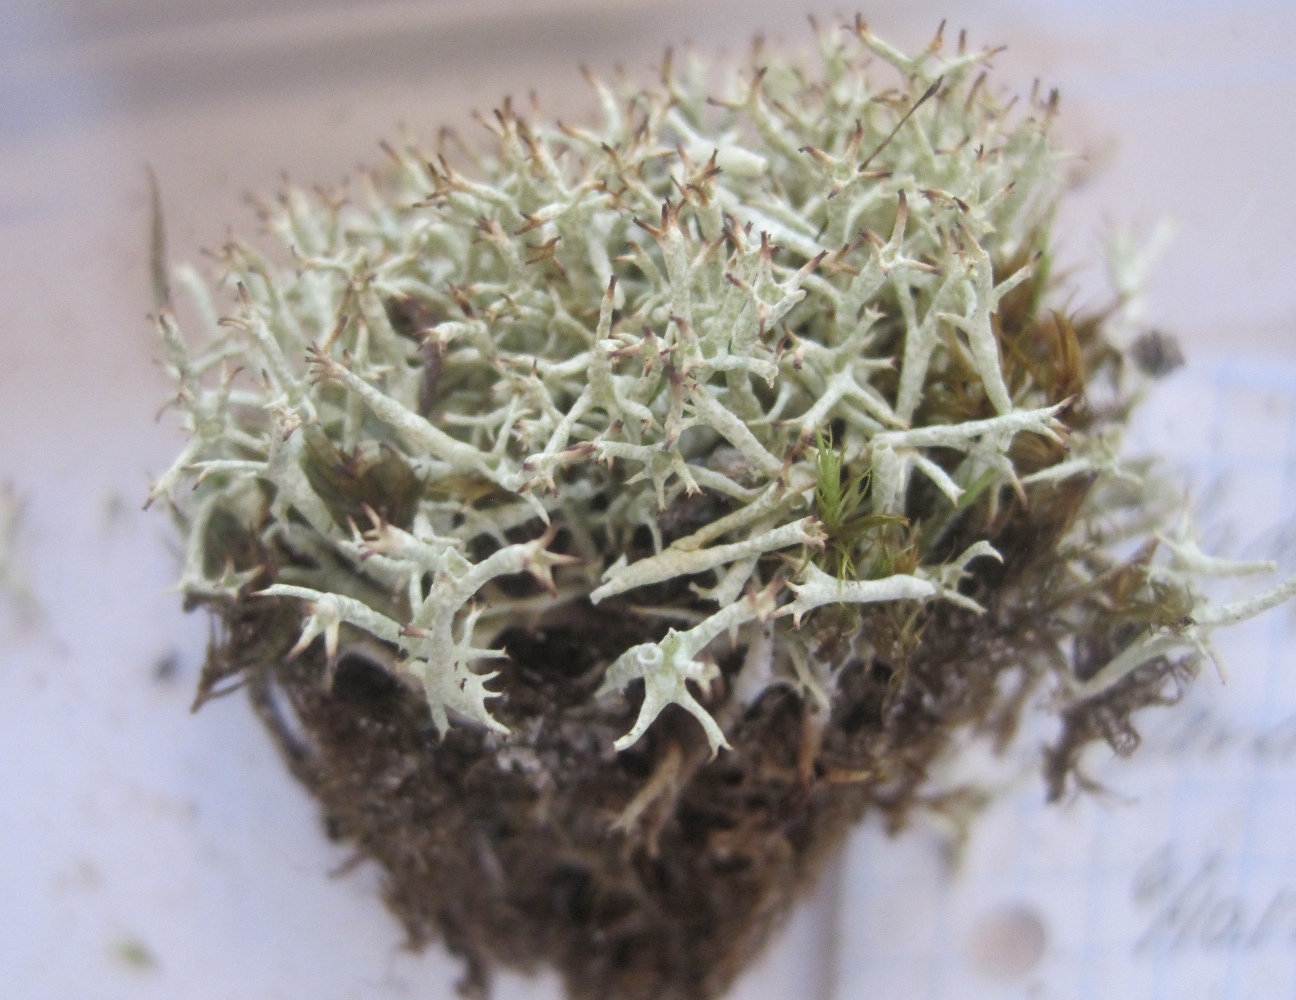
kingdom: Fungi
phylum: Ascomycota
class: Lecanoromycetes
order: Lecanorales
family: Cladoniaceae
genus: Cladonia
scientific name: Cladonia uncialis
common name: pigget bægerlav
